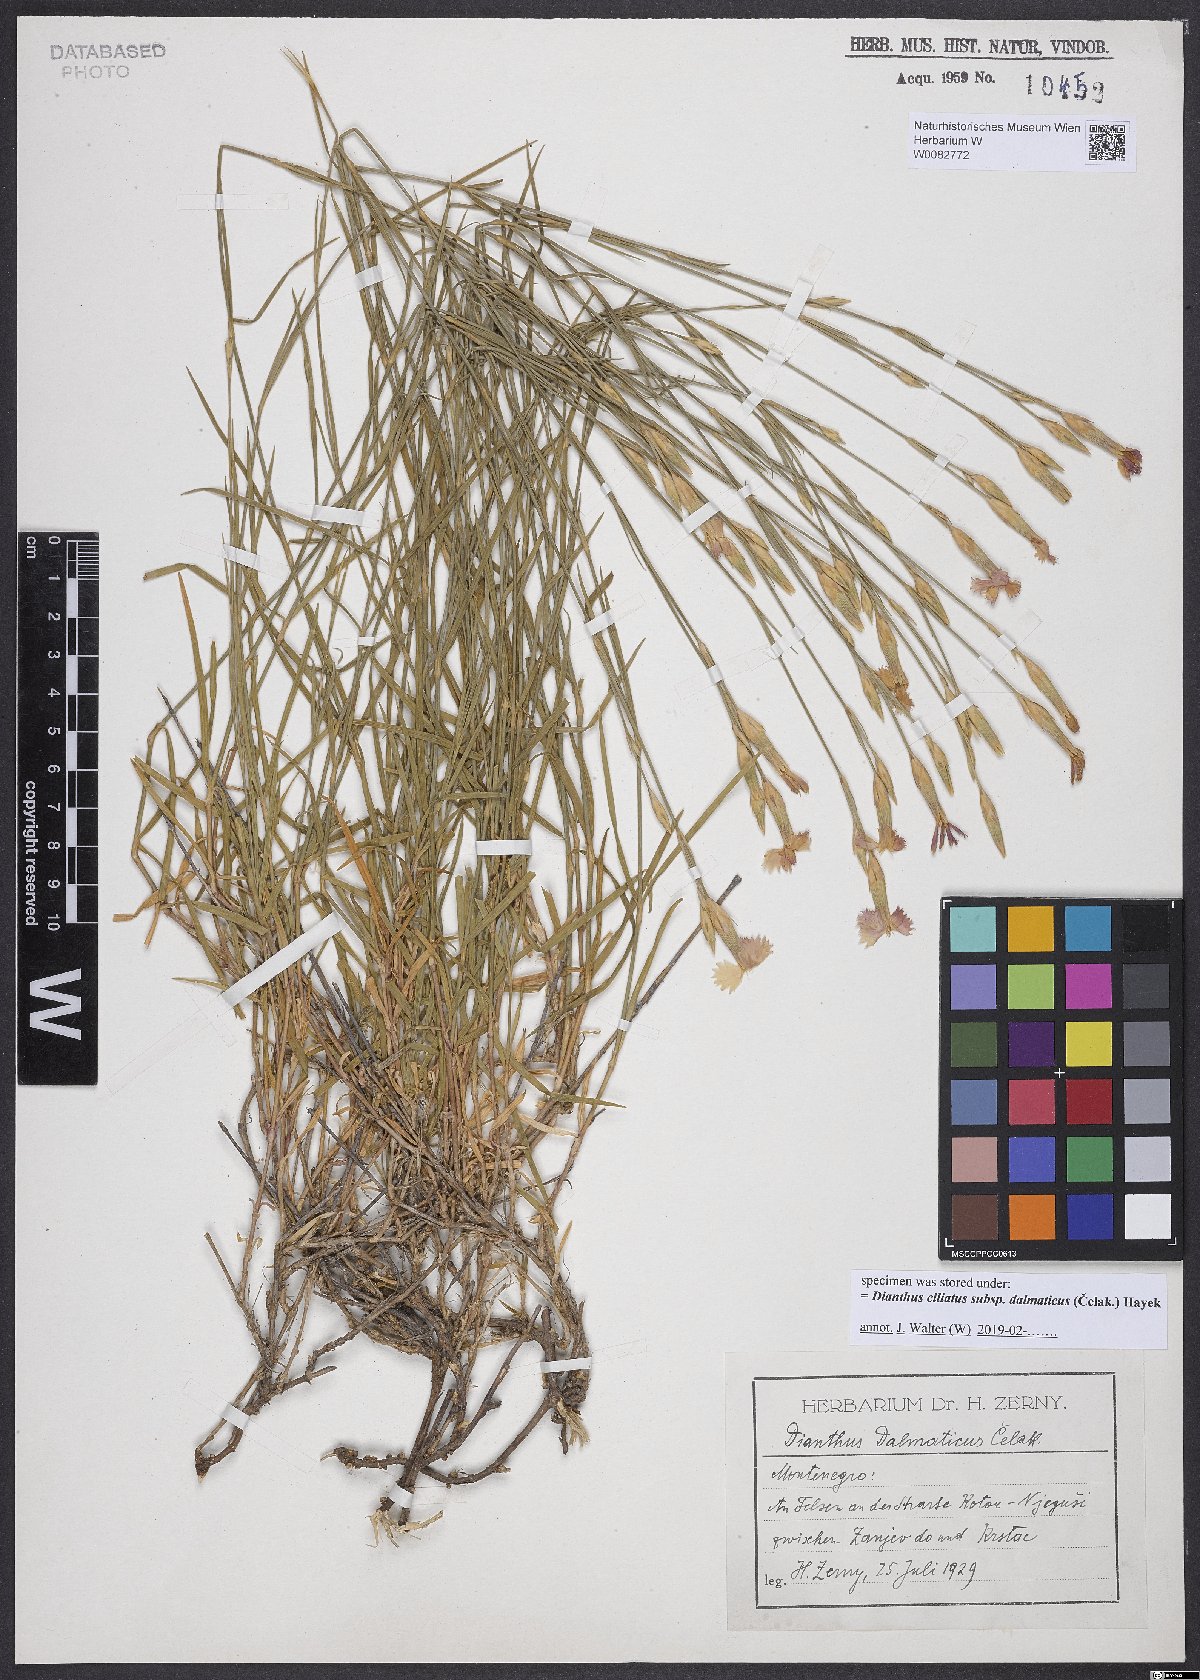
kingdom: Plantae
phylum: Tracheophyta
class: Magnoliopsida
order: Caryophyllales
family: Caryophyllaceae
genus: Dianthus
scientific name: Dianthus ciliatus
